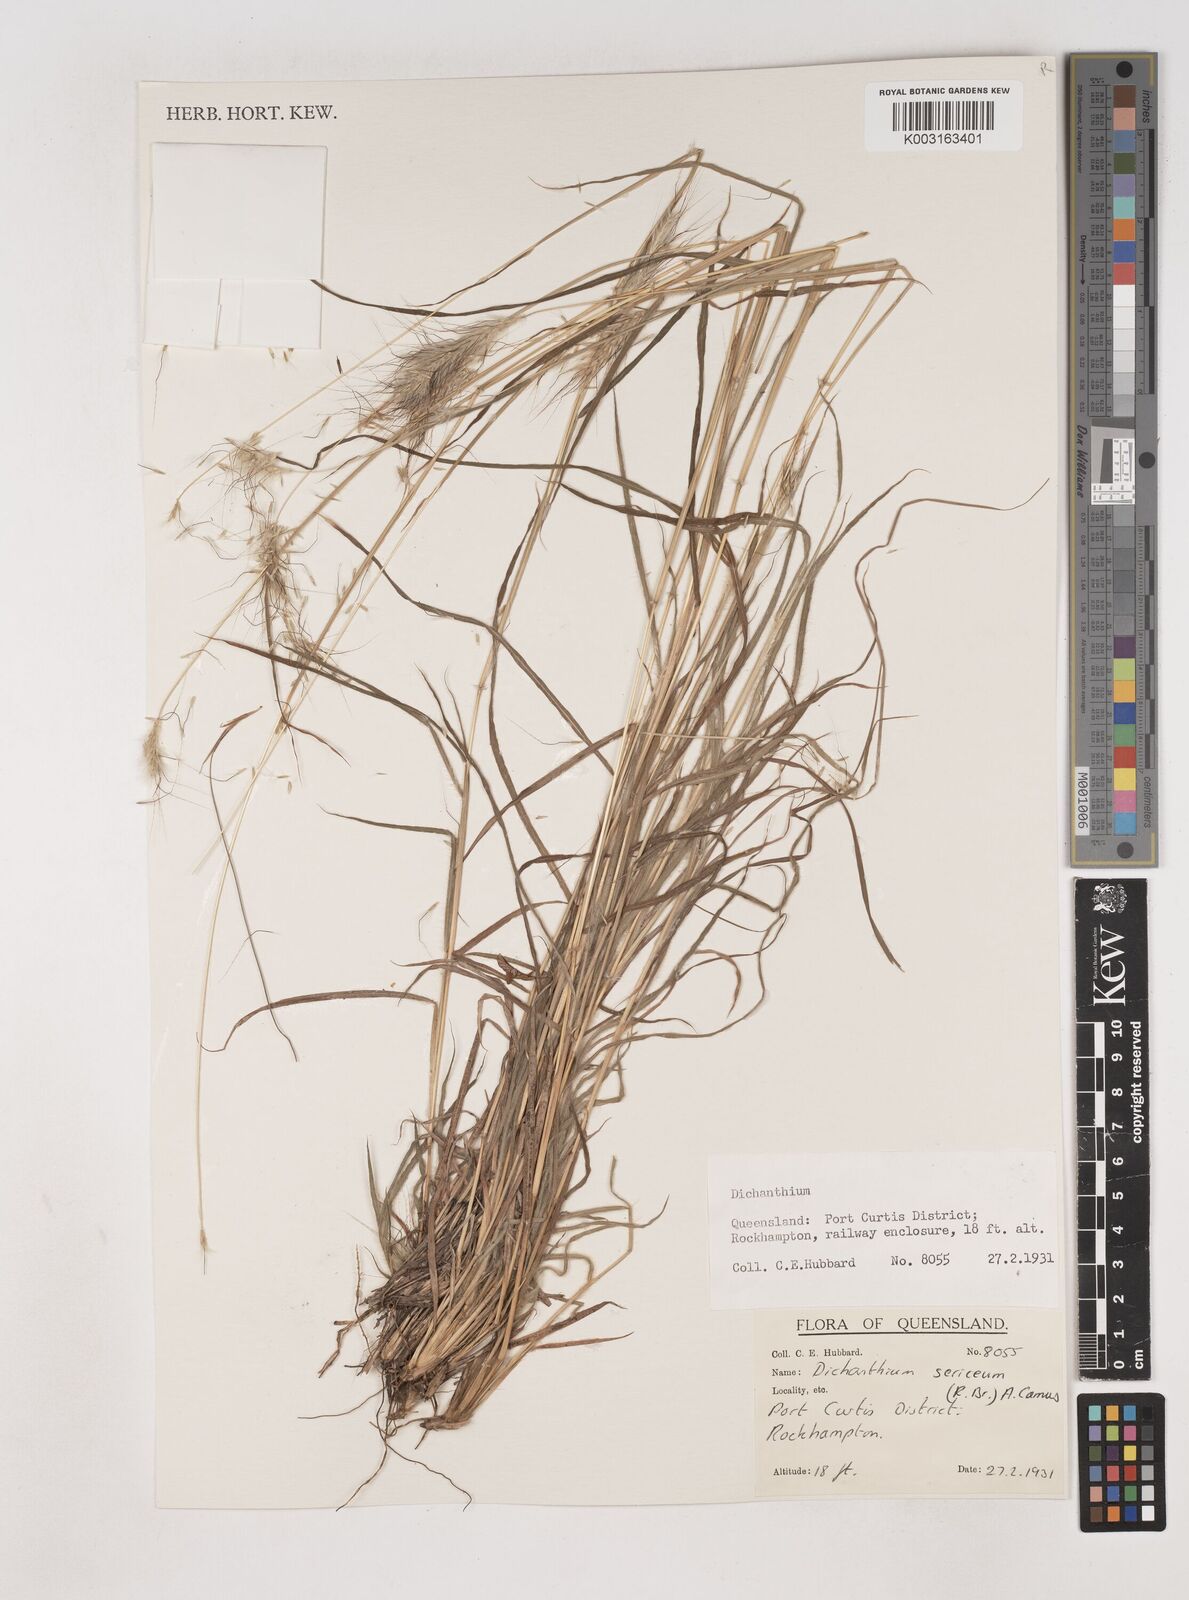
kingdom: Plantae
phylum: Tracheophyta
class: Liliopsida
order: Poales
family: Poaceae
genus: Dichanthium
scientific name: Dichanthium sericeum
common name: Silky bluestem
